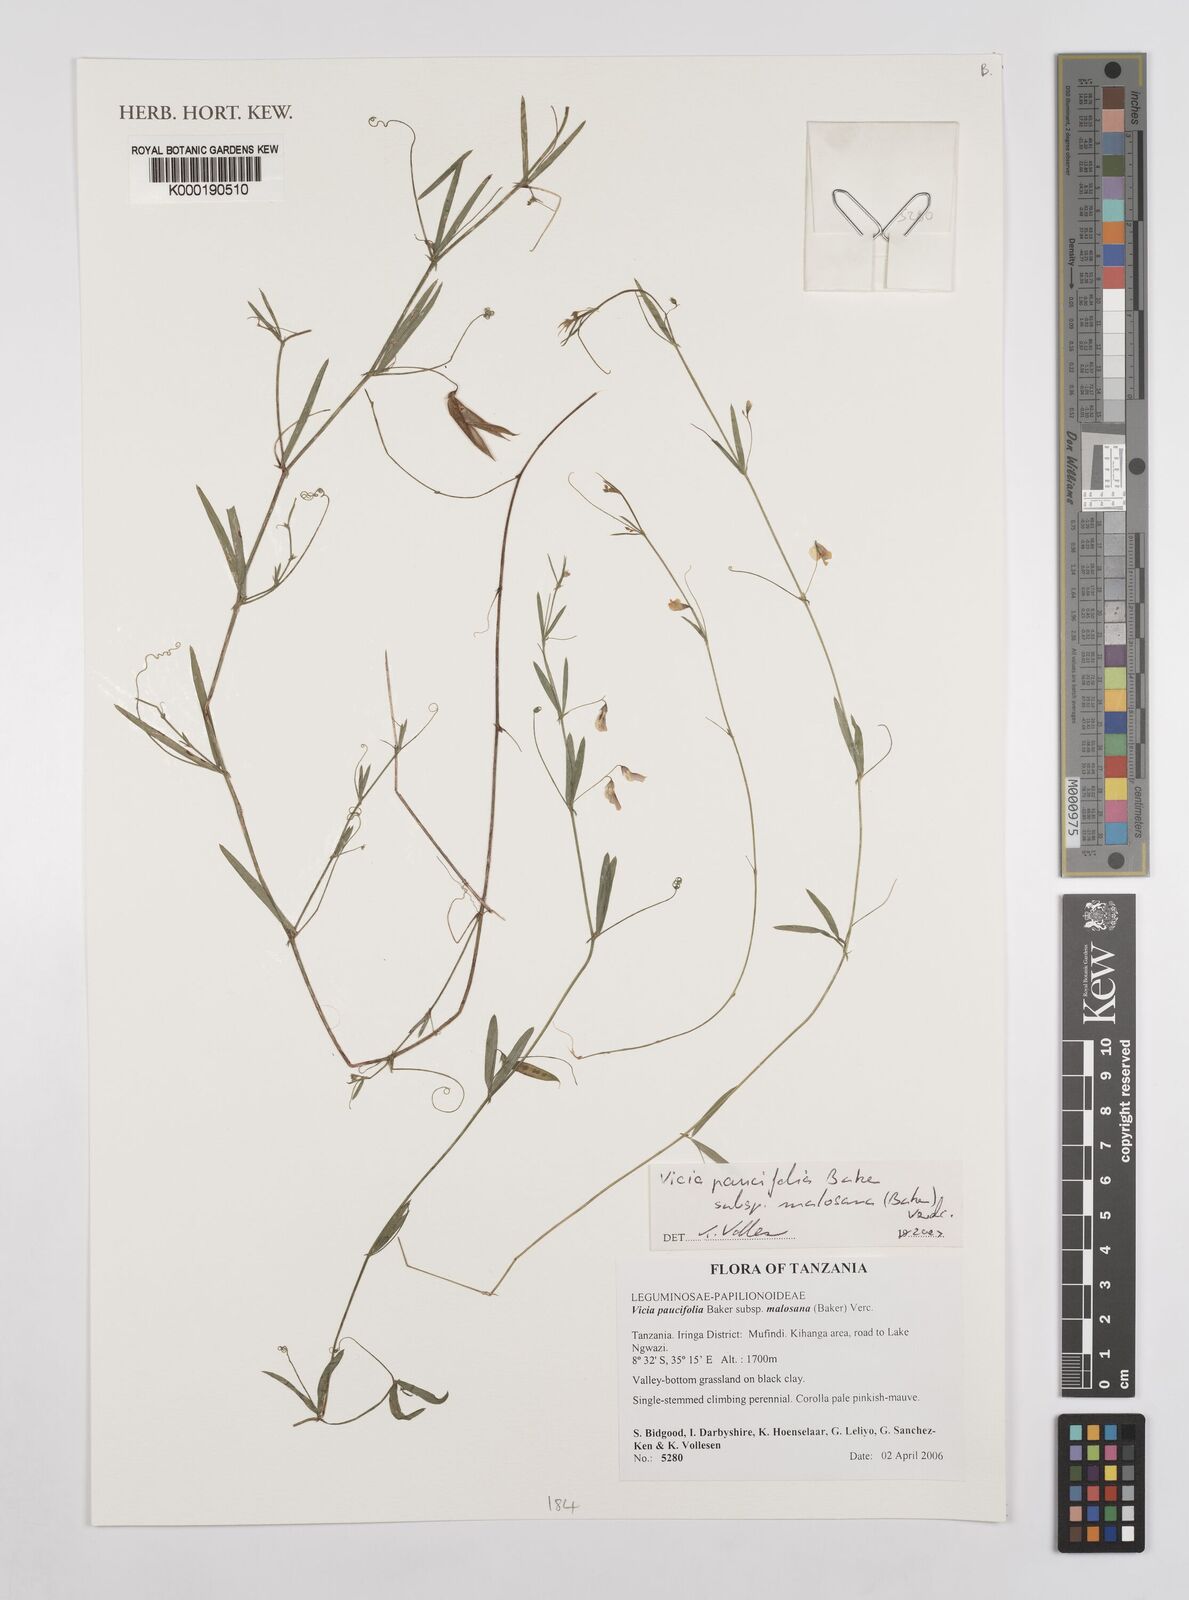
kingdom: Plantae
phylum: Tracheophyta
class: Magnoliopsida
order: Fabales
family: Fabaceae
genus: Vicia
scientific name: Vicia paucifolia
